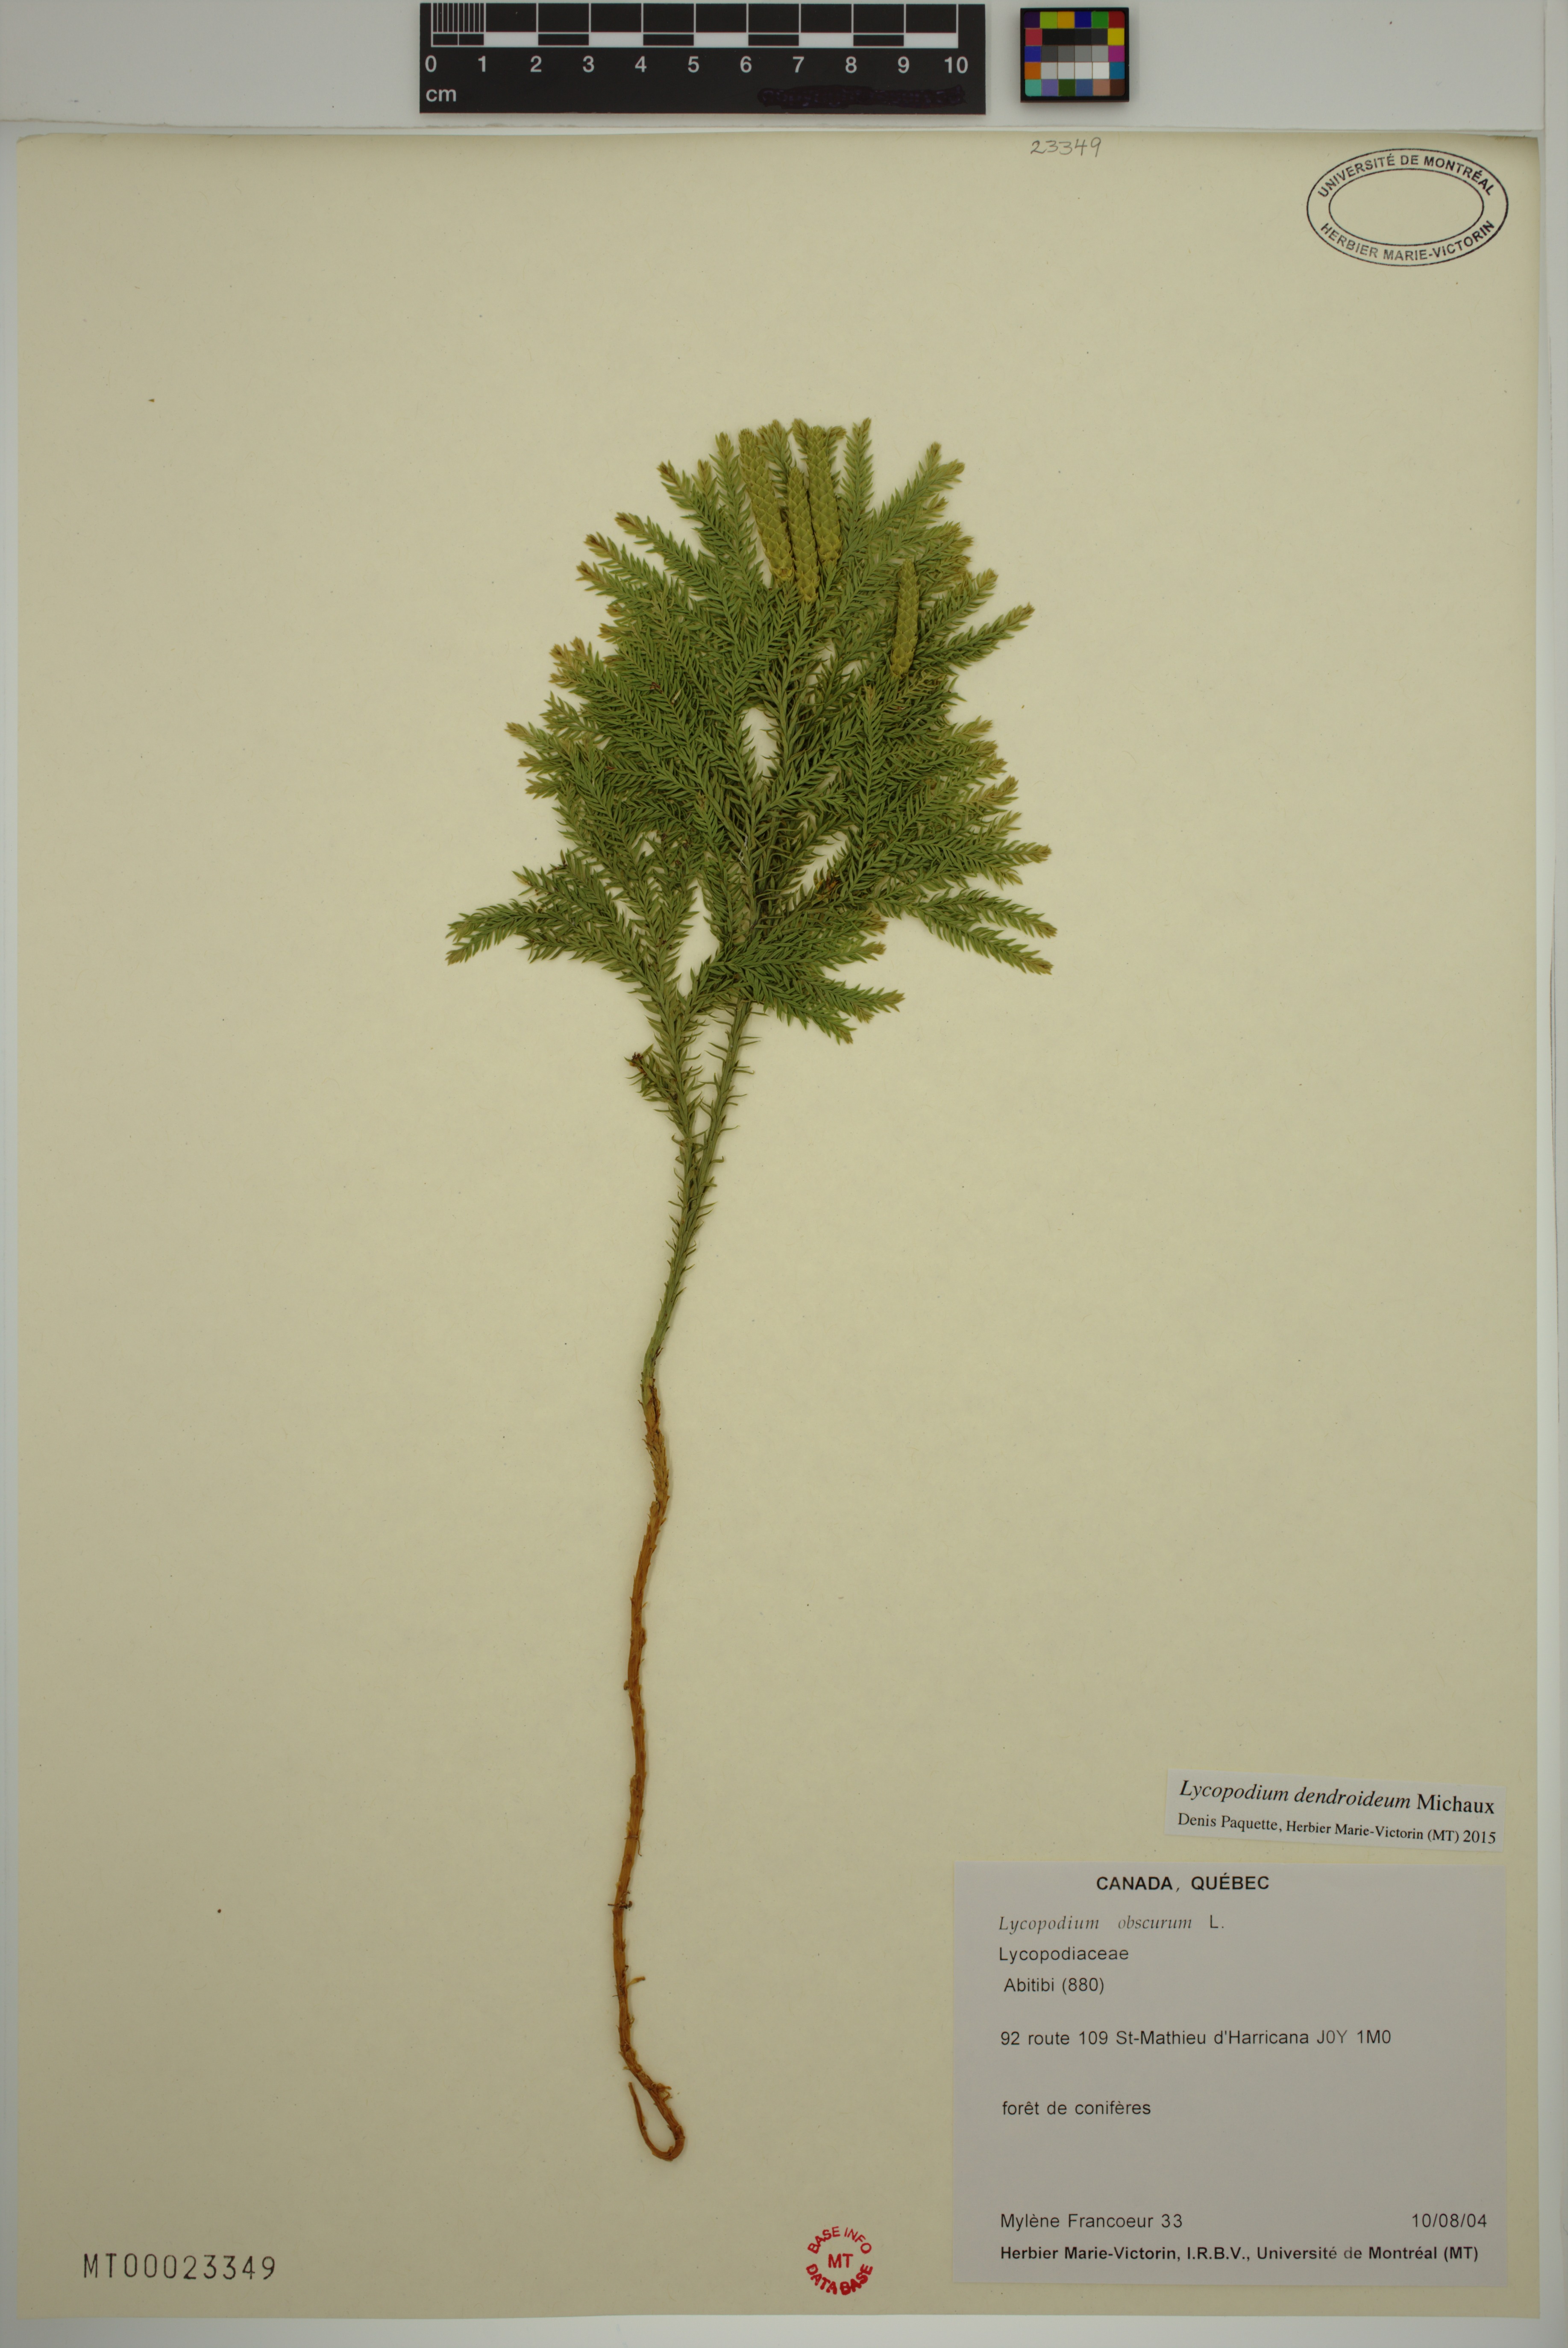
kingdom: Plantae
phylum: Tracheophyta
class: Lycopodiopsida
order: Lycopodiales
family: Lycopodiaceae
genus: Dendrolycopodium
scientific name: Dendrolycopodium dendroideum
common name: Northern tree-clubmoss
